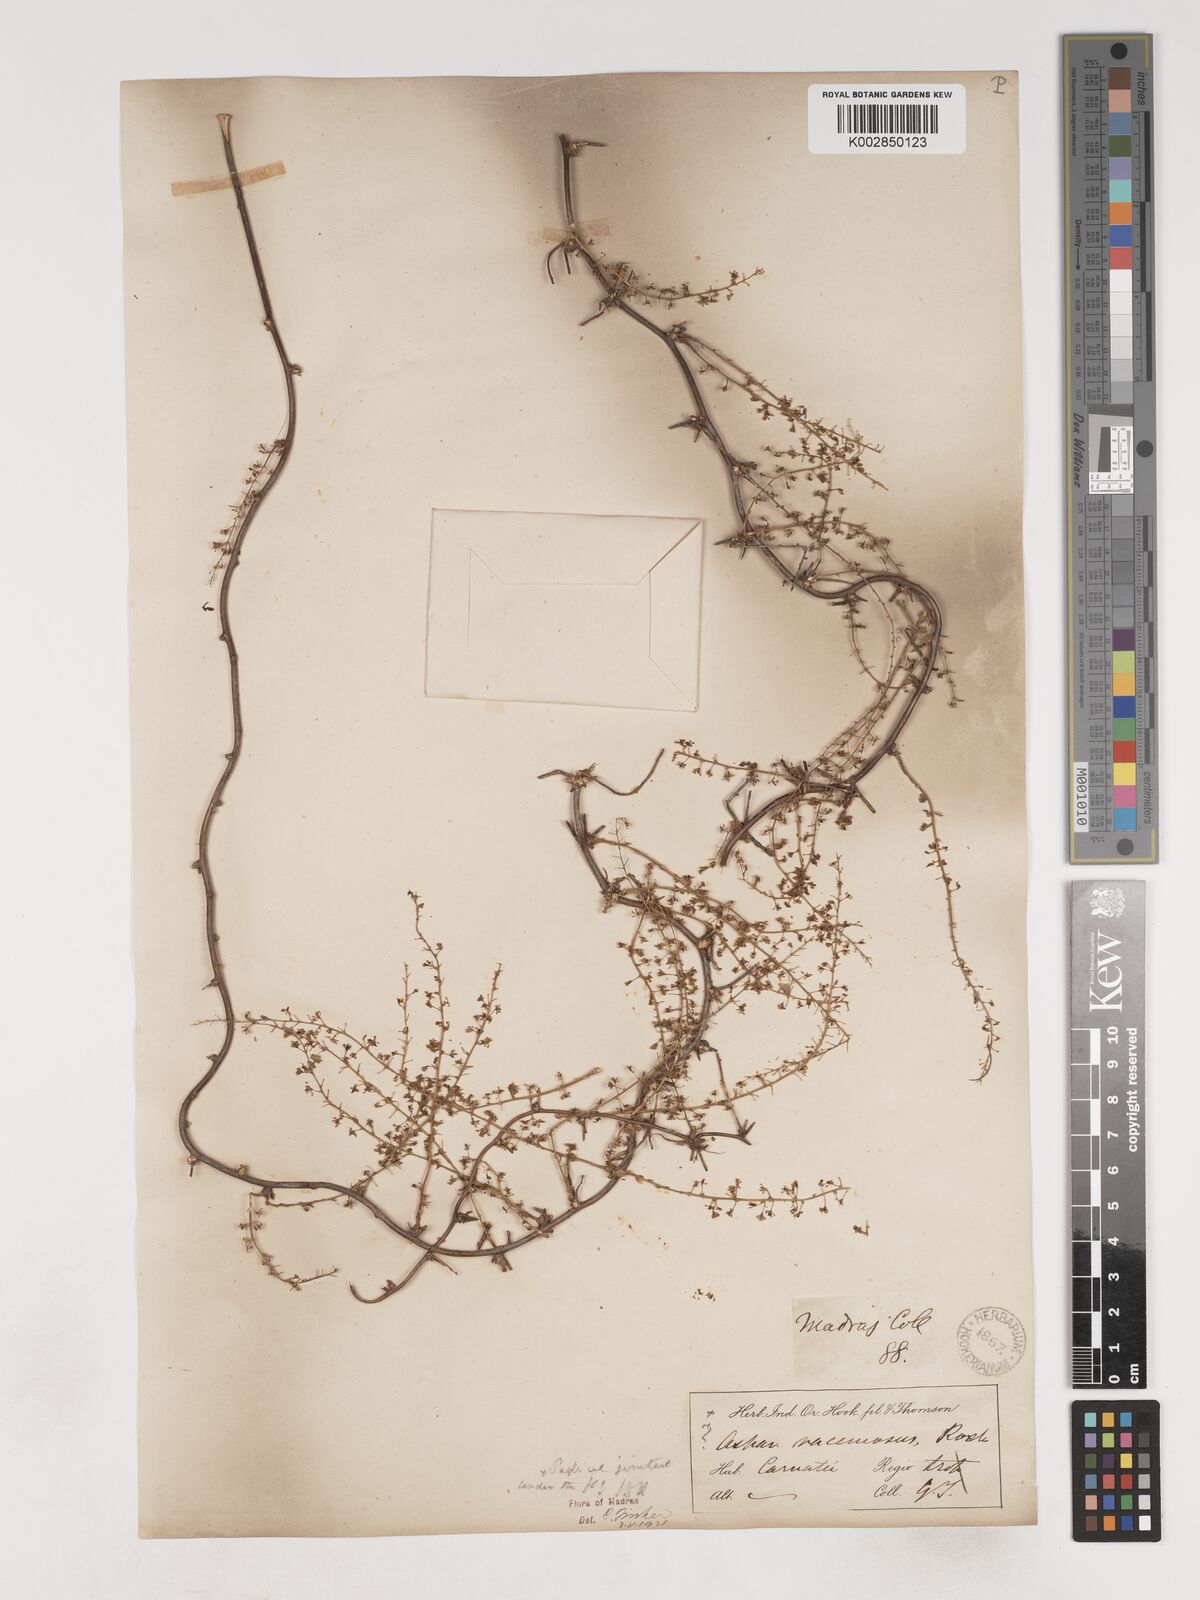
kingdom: Plantae
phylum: Tracheophyta
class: Liliopsida
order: Asparagales
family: Asparagaceae
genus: Asparagus
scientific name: Asparagus racemosus
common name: Asparagus-fern
